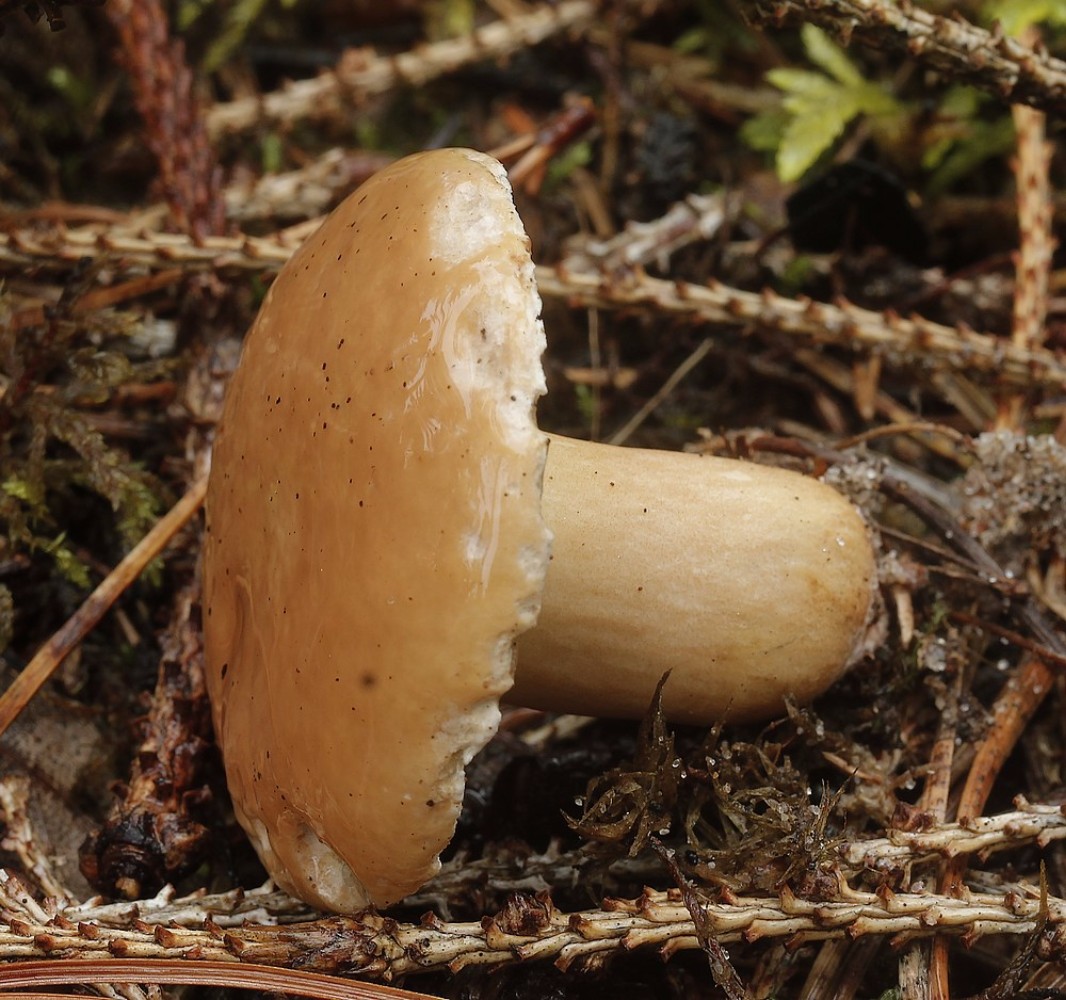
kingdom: Fungi
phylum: Basidiomycota
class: Agaricomycetes
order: Boletales
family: Suillaceae
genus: Suillus
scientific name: Suillus bovinus
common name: grovporet slimrørhat
